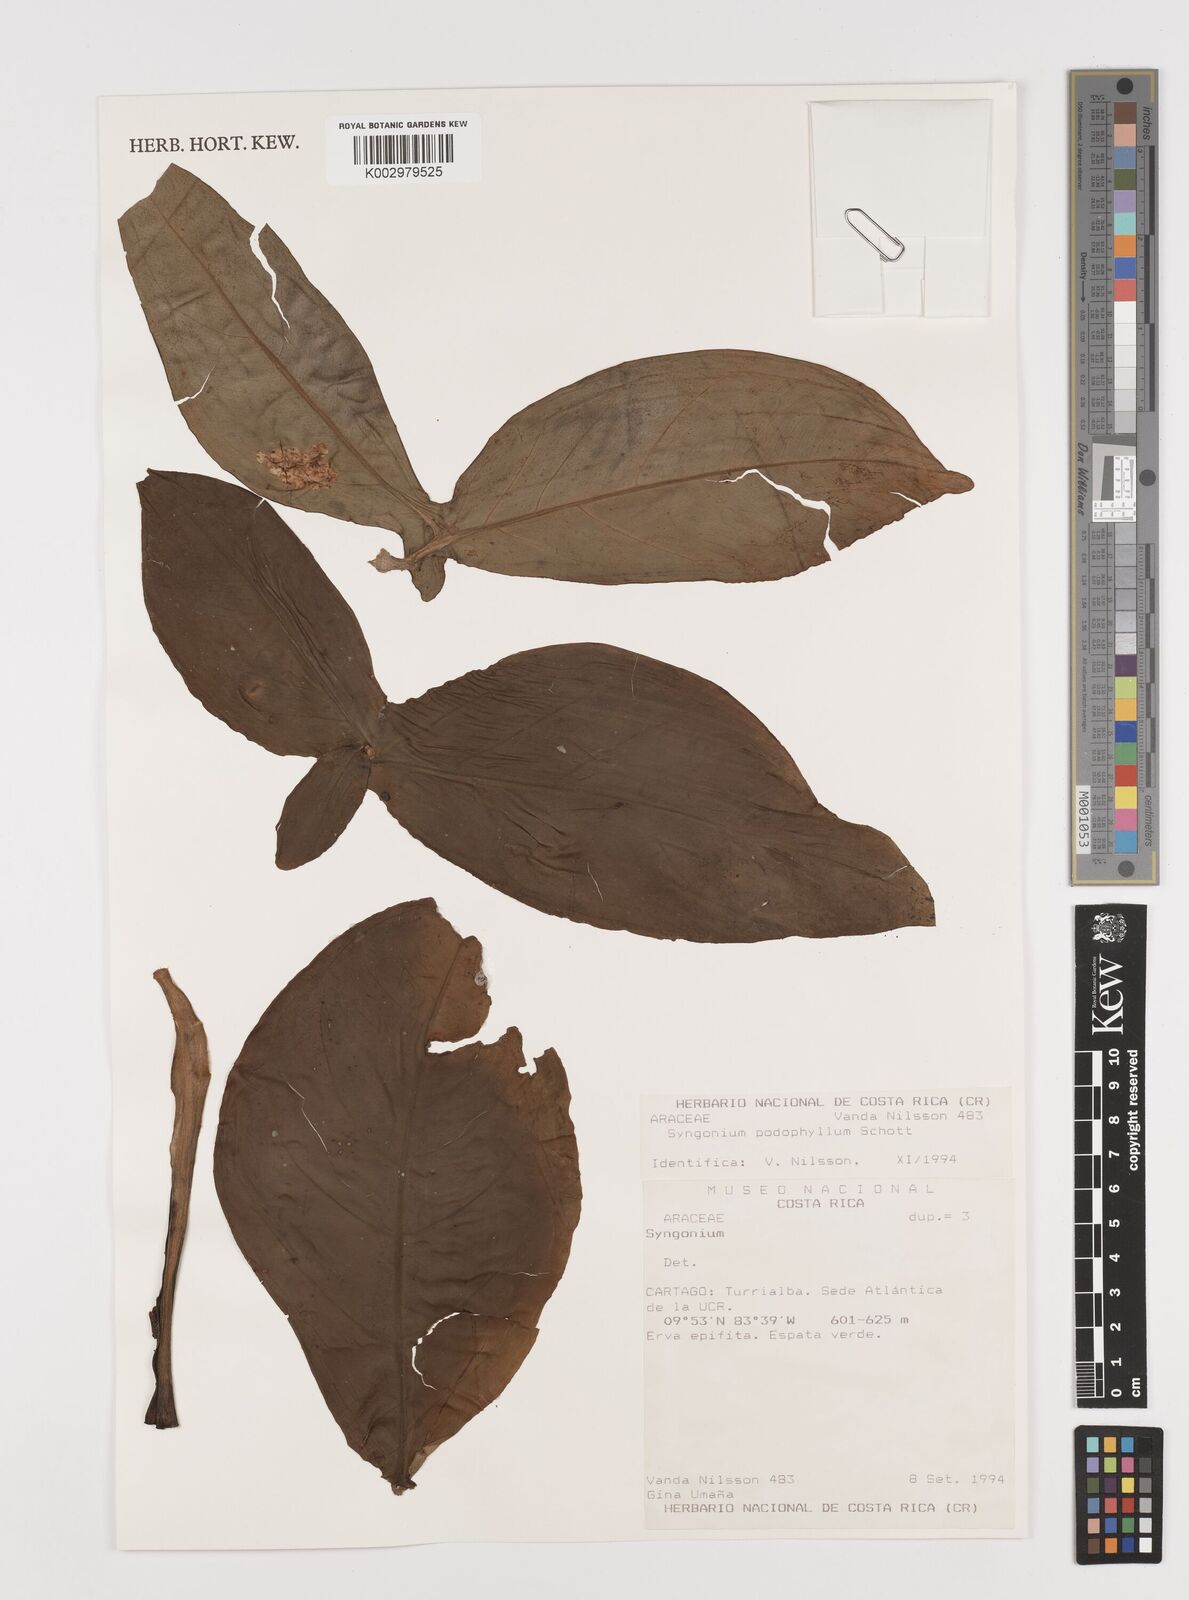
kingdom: Plantae
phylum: Tracheophyta
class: Liliopsida
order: Alismatales
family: Araceae
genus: Syngonium
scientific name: Syngonium podophyllum
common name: American evergreen
